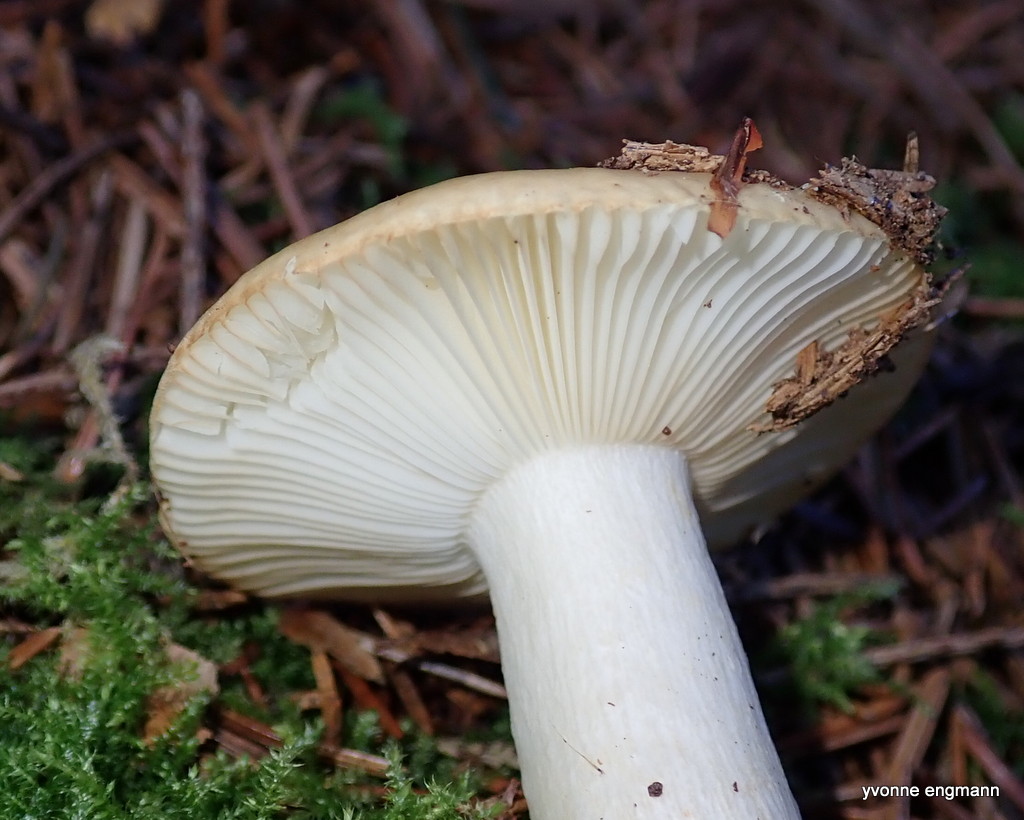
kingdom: Fungi
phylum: Basidiomycota
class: Agaricomycetes
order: Russulales
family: Russulaceae
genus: Russula
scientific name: Russula ochroleuca
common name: okkergul skørhat
